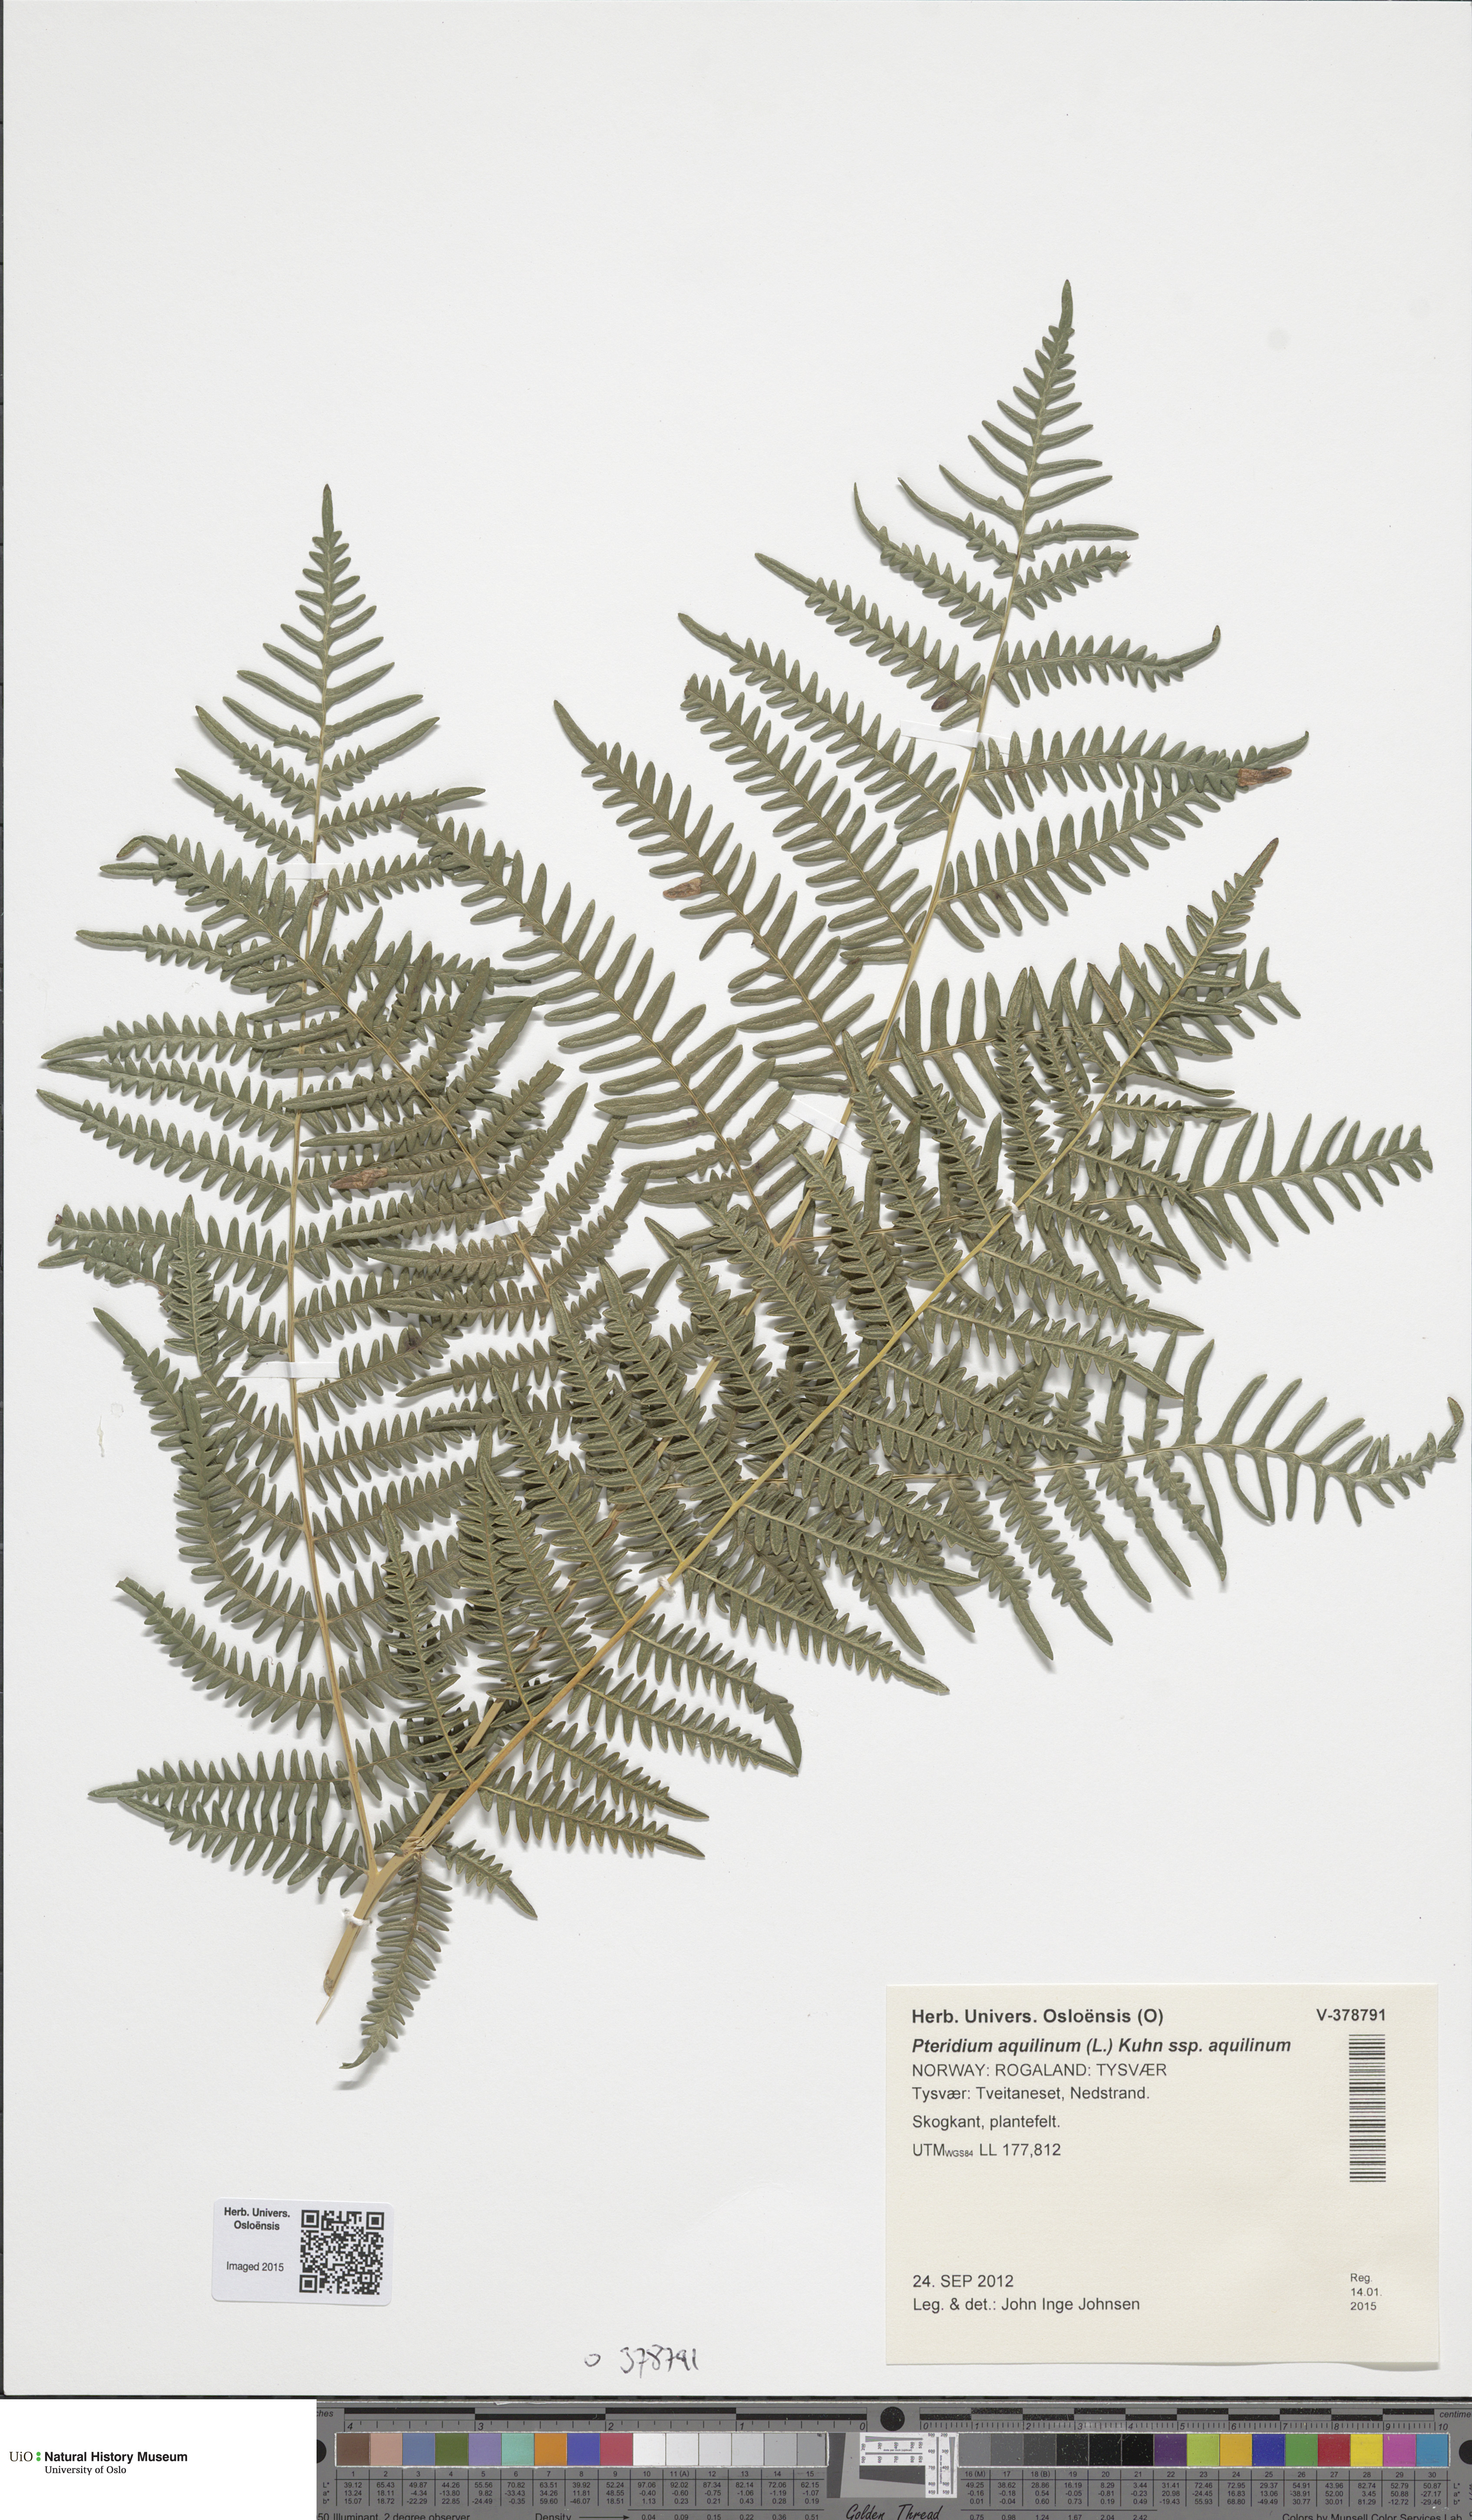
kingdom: Plantae
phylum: Tracheophyta
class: Polypodiopsida
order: Polypodiales
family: Dennstaedtiaceae
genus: Pteridium
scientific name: Pteridium aquilinum
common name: Bracken
